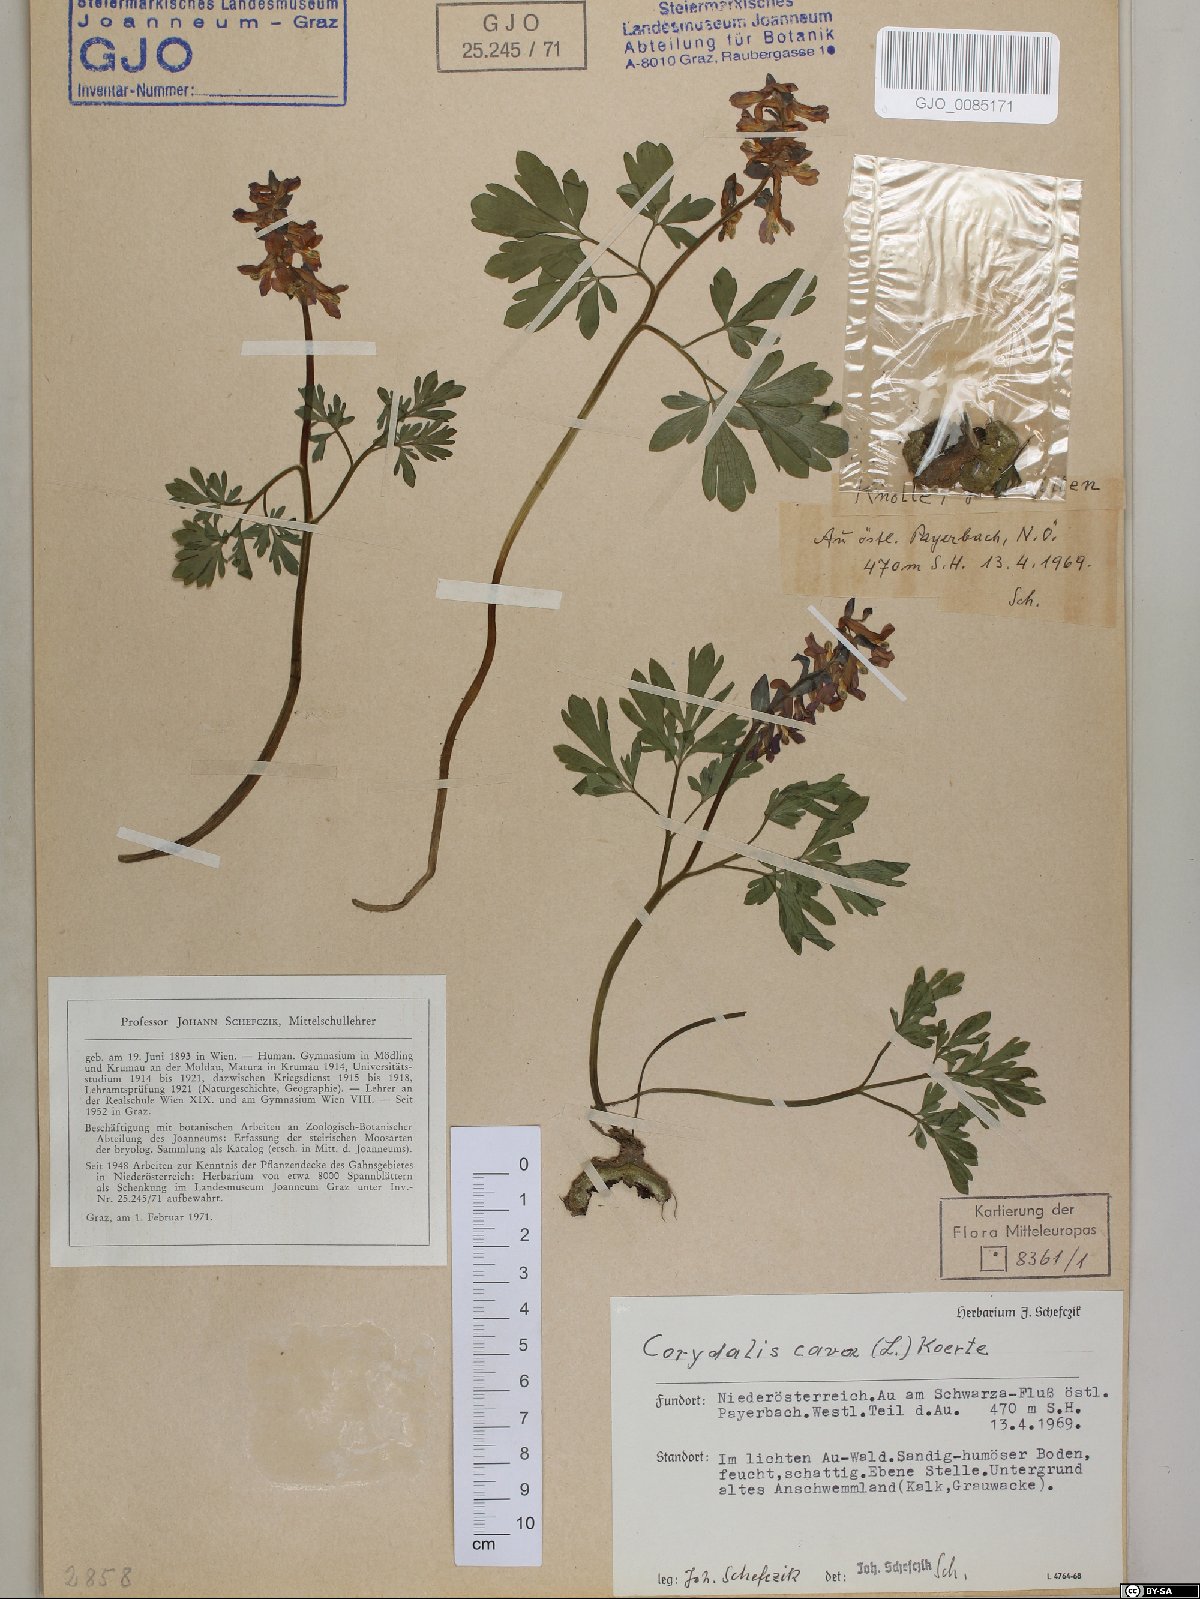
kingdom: Plantae
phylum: Tracheophyta
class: Magnoliopsida
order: Ranunculales
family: Papaveraceae
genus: Corydalis
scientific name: Corydalis cava
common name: Hollowroot
